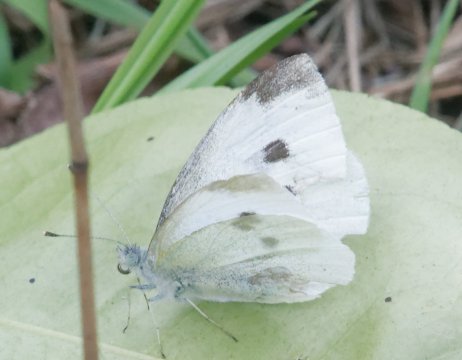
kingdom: Animalia
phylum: Arthropoda
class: Insecta
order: Lepidoptera
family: Pieridae
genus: Pieris
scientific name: Pieris rapae
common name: Cabbage White
